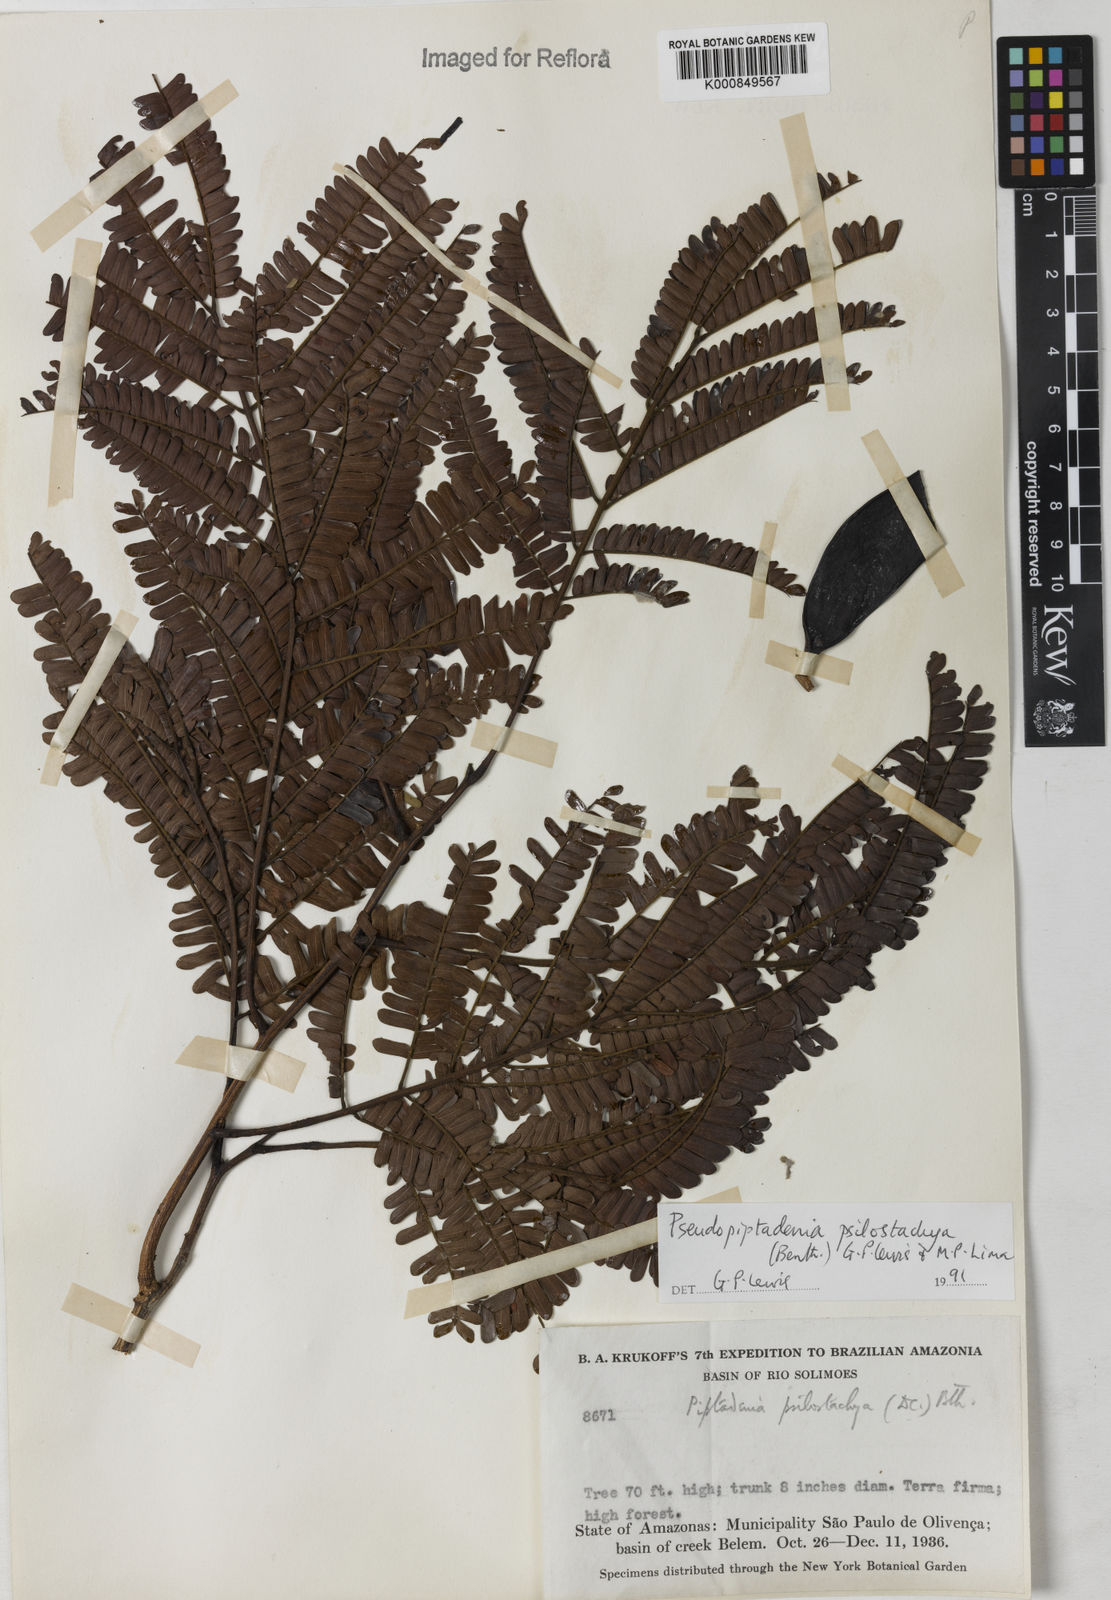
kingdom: Plantae
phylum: Tracheophyta
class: Magnoliopsida
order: Fabales
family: Fabaceae
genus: Pseudopiptadenia
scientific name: Pseudopiptadenia psilostachya
